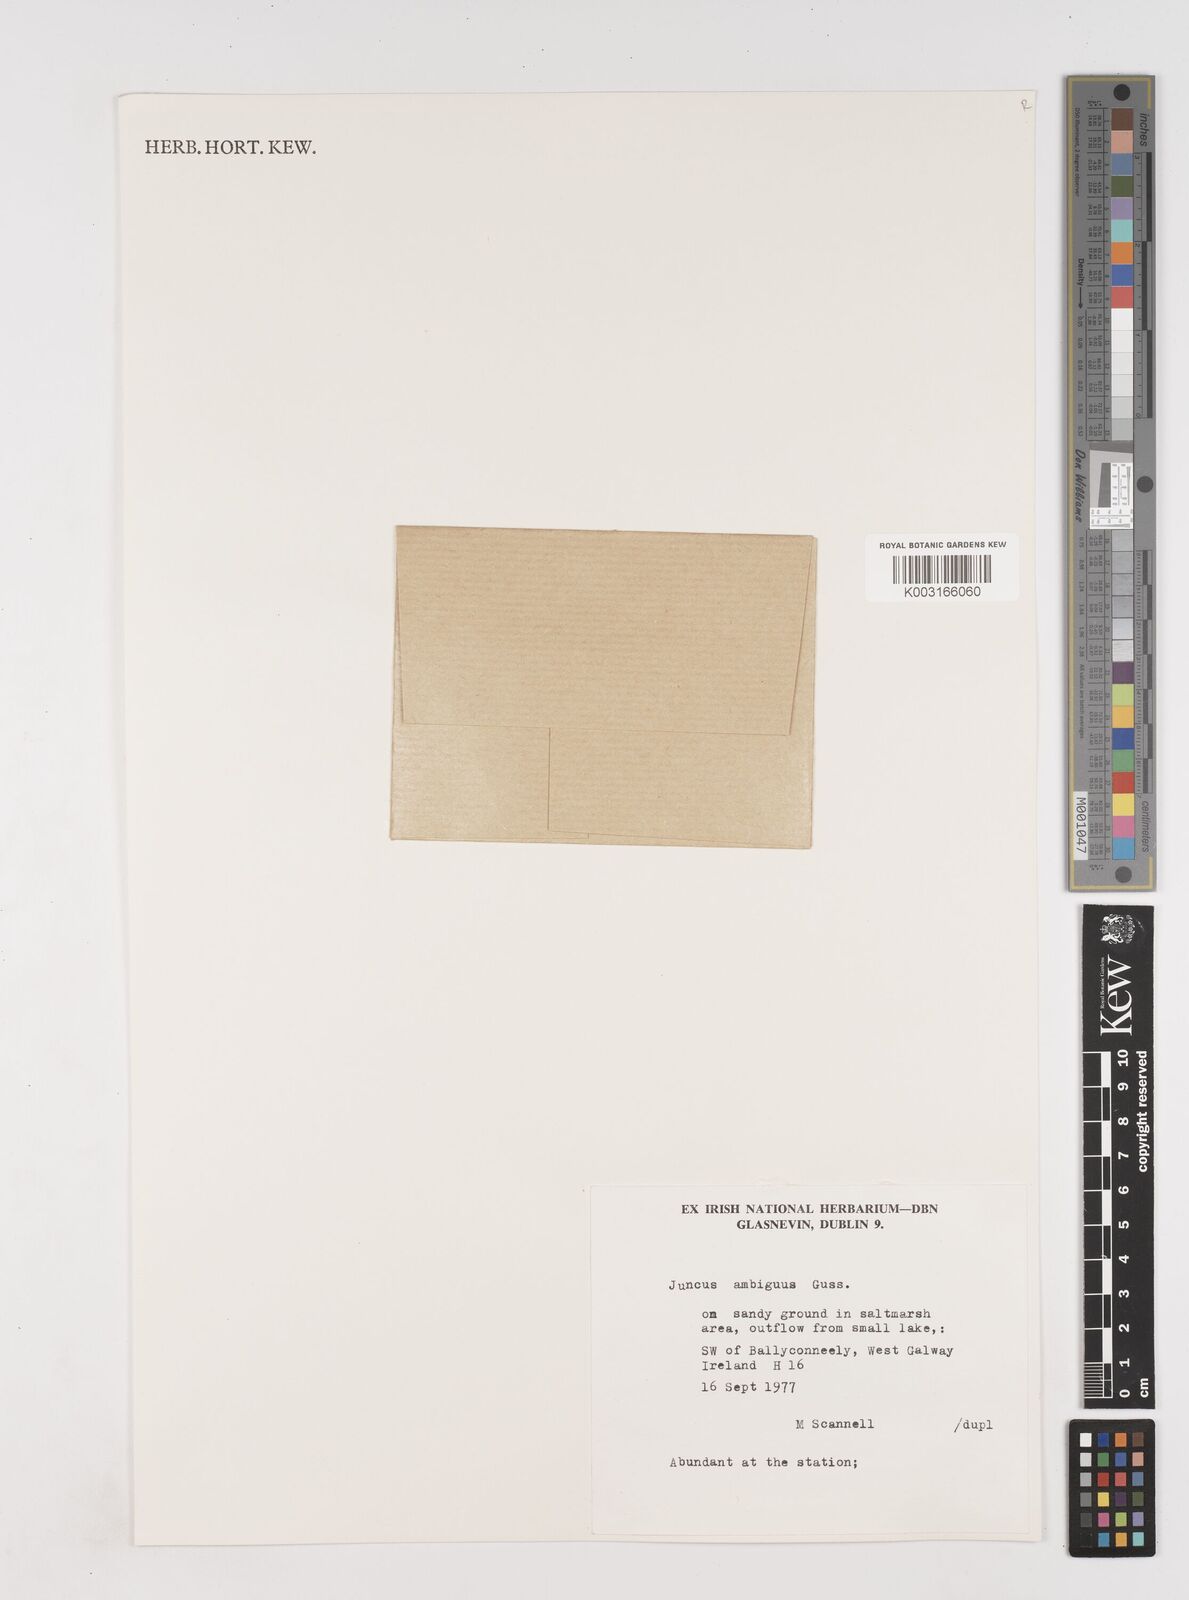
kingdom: Plantae
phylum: Tracheophyta
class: Liliopsida
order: Poales
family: Juncaceae
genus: Juncus
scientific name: Juncus hybridus
